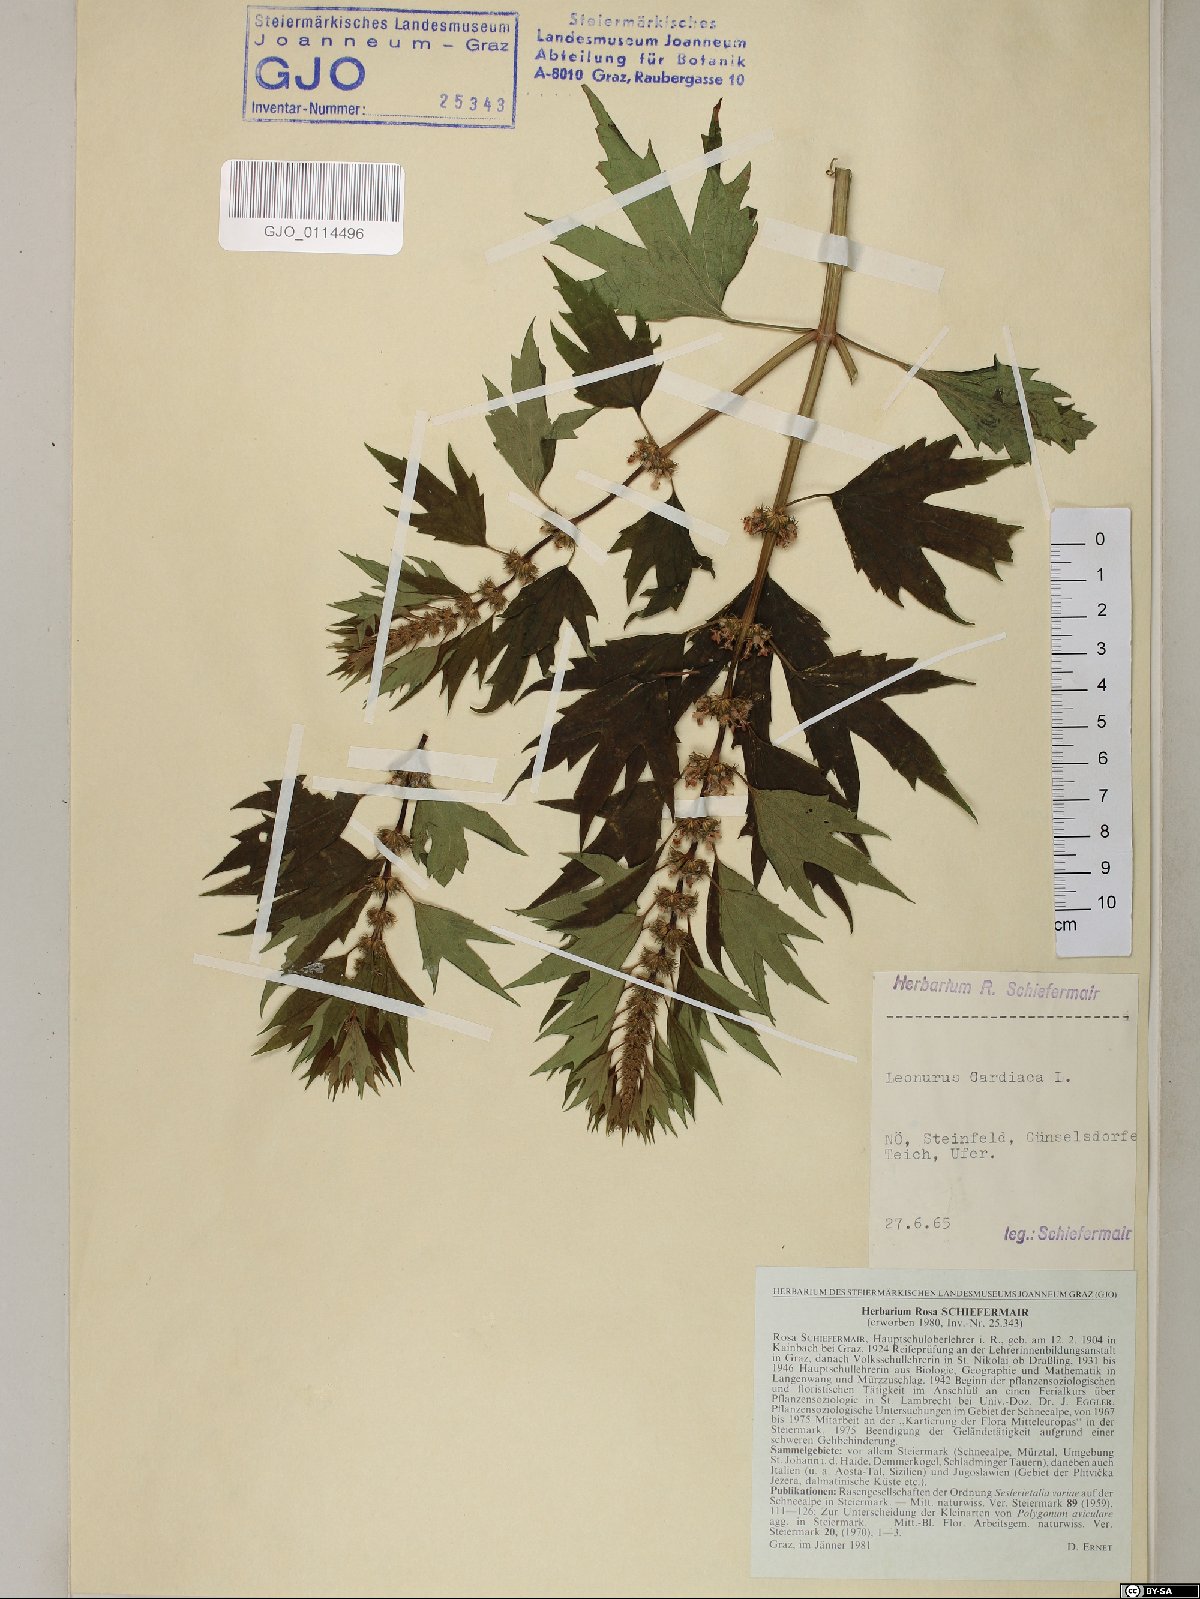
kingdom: Plantae
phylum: Tracheophyta
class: Magnoliopsida
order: Lamiales
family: Lamiaceae
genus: Leonurus
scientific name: Leonurus cardiaca
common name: Motherwort
